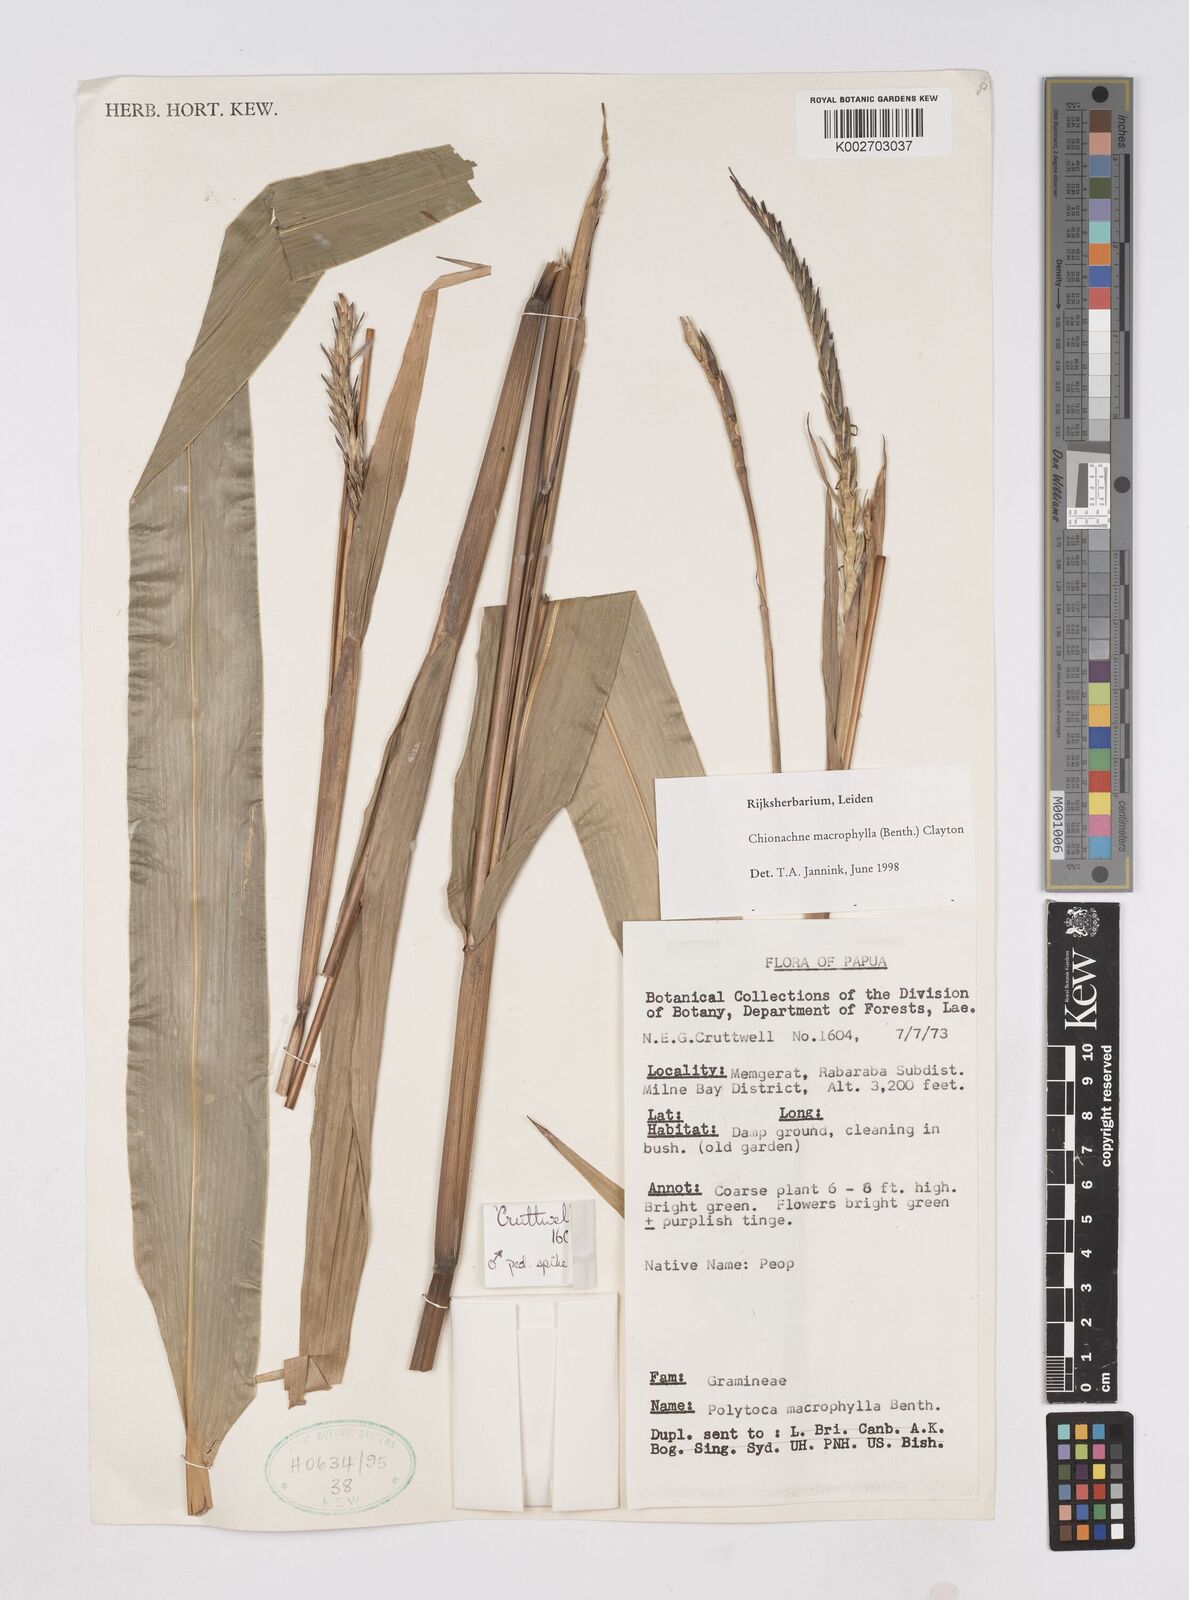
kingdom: Plantae
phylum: Tracheophyta
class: Liliopsida
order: Poales
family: Poaceae
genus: Polytoca
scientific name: Polytoca
